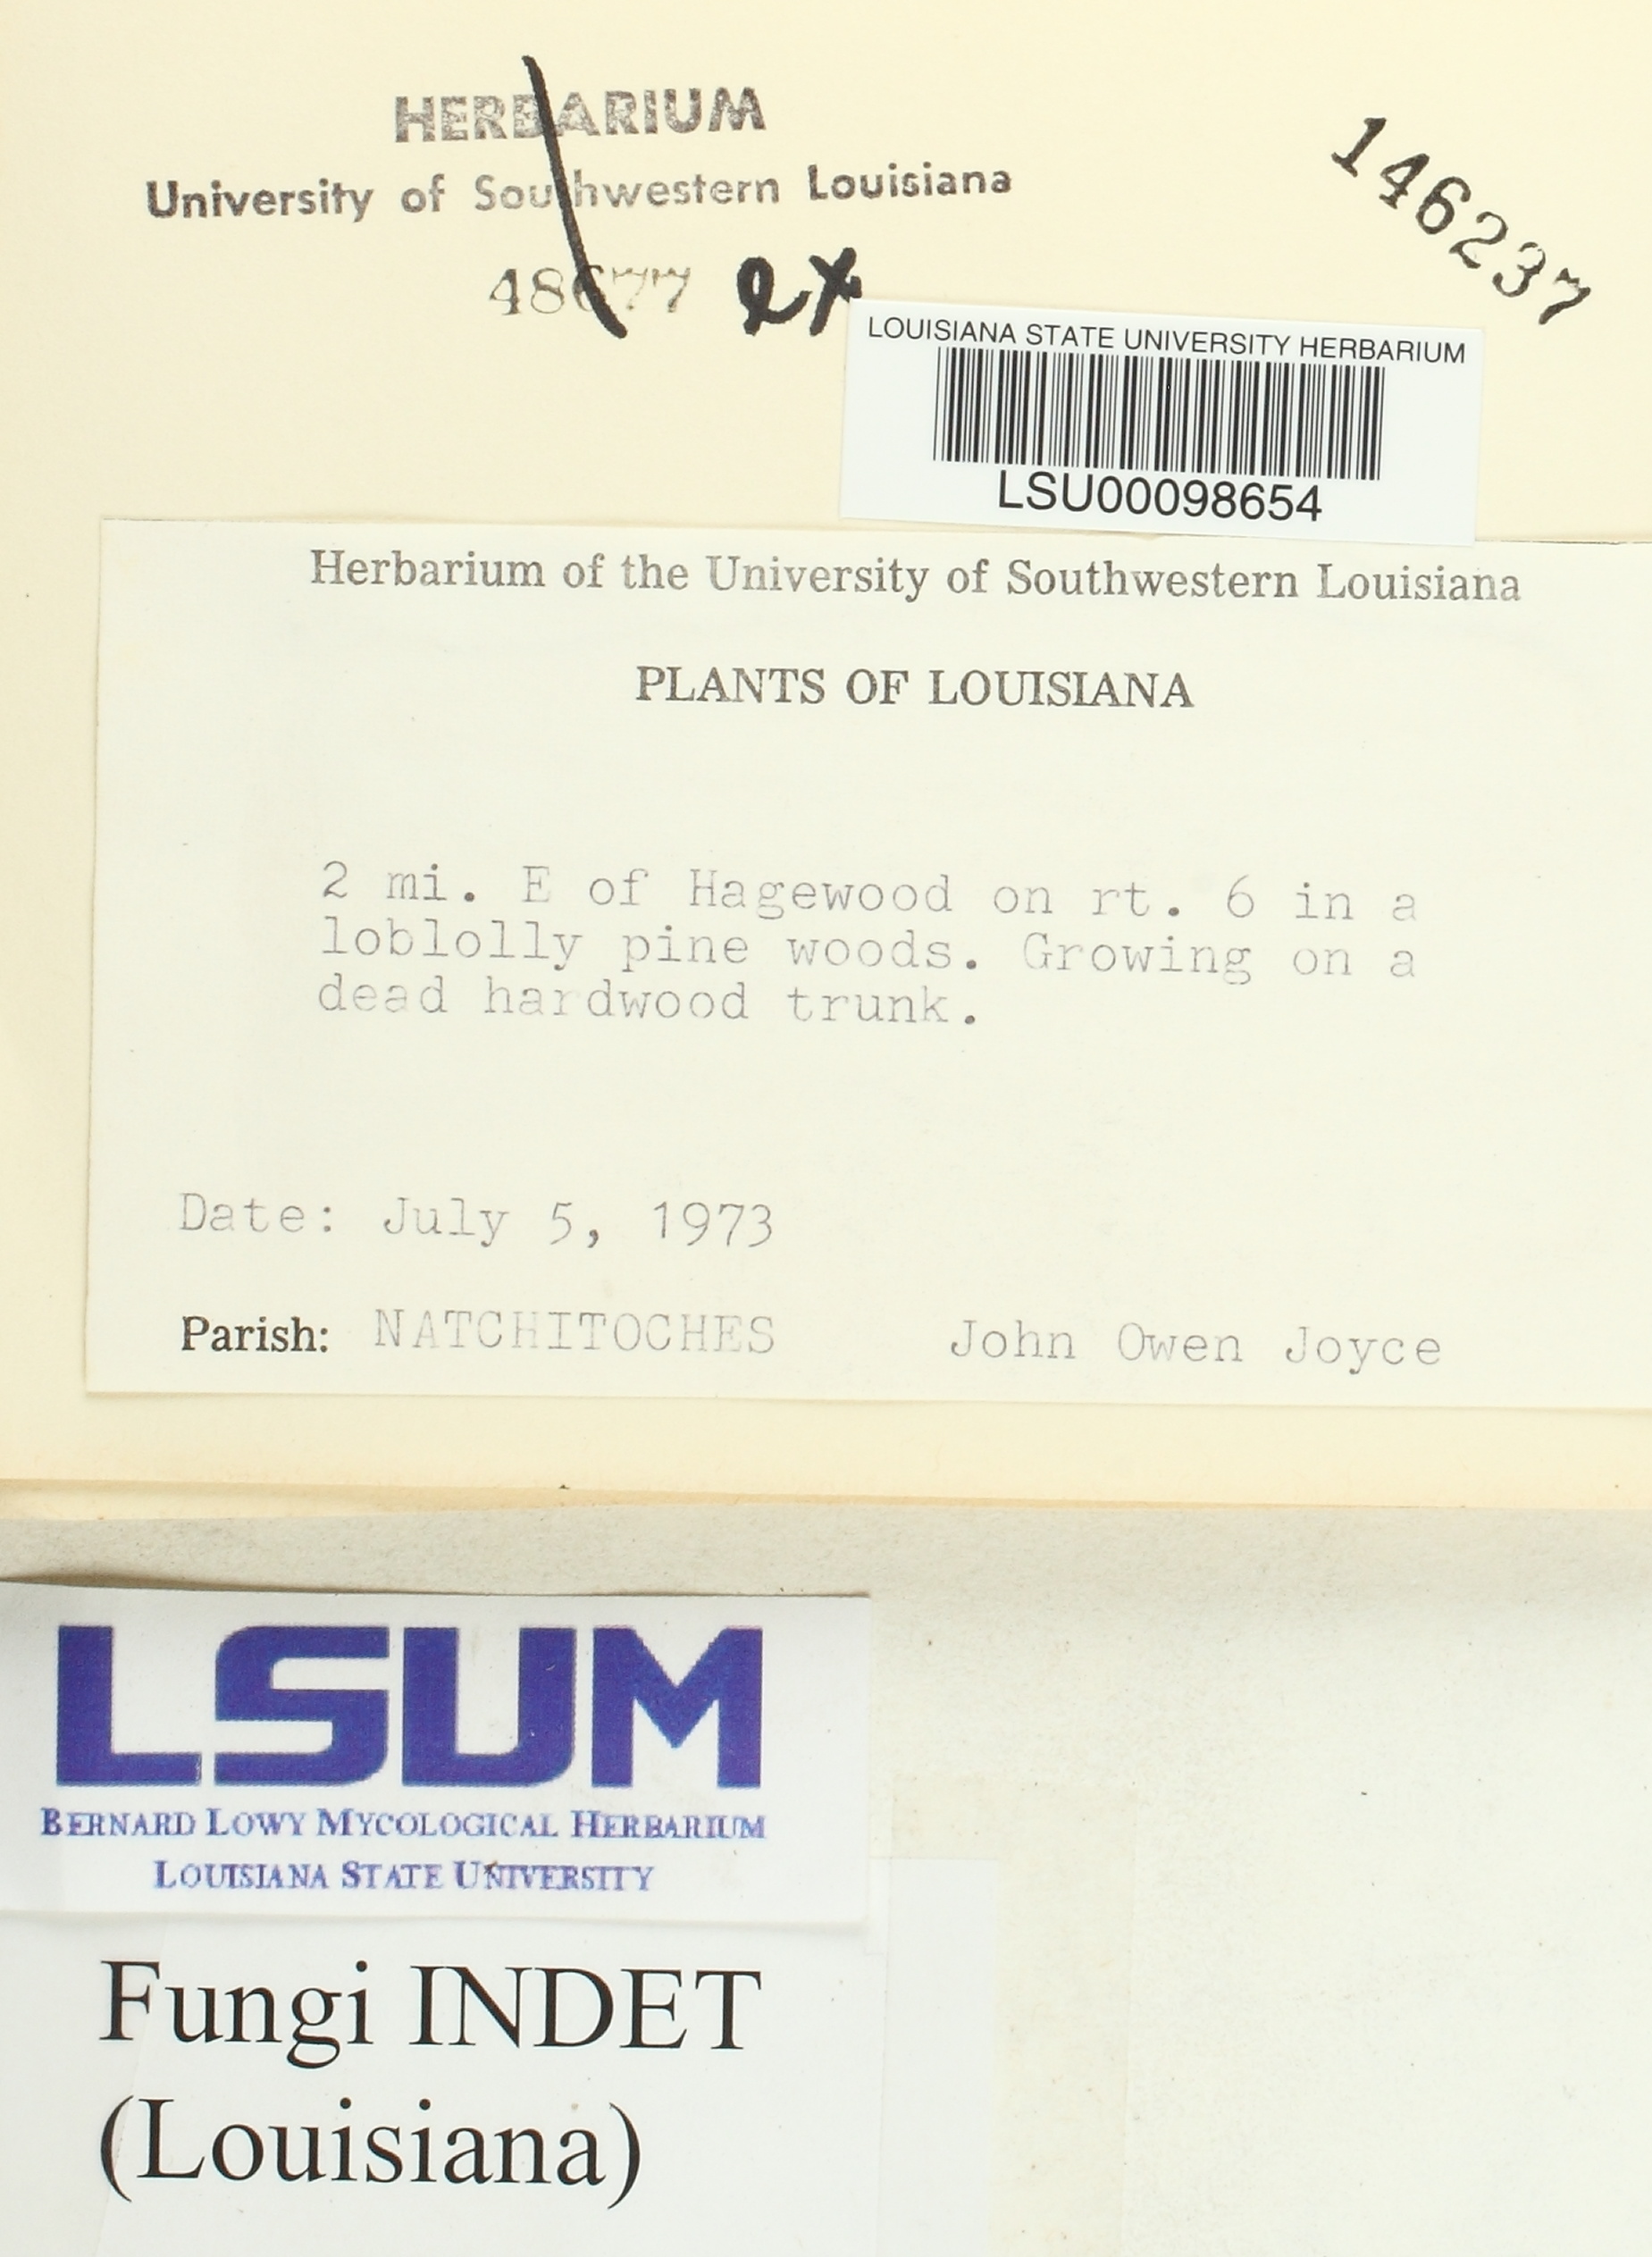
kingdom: Fungi
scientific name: Fungi
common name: Fungi
